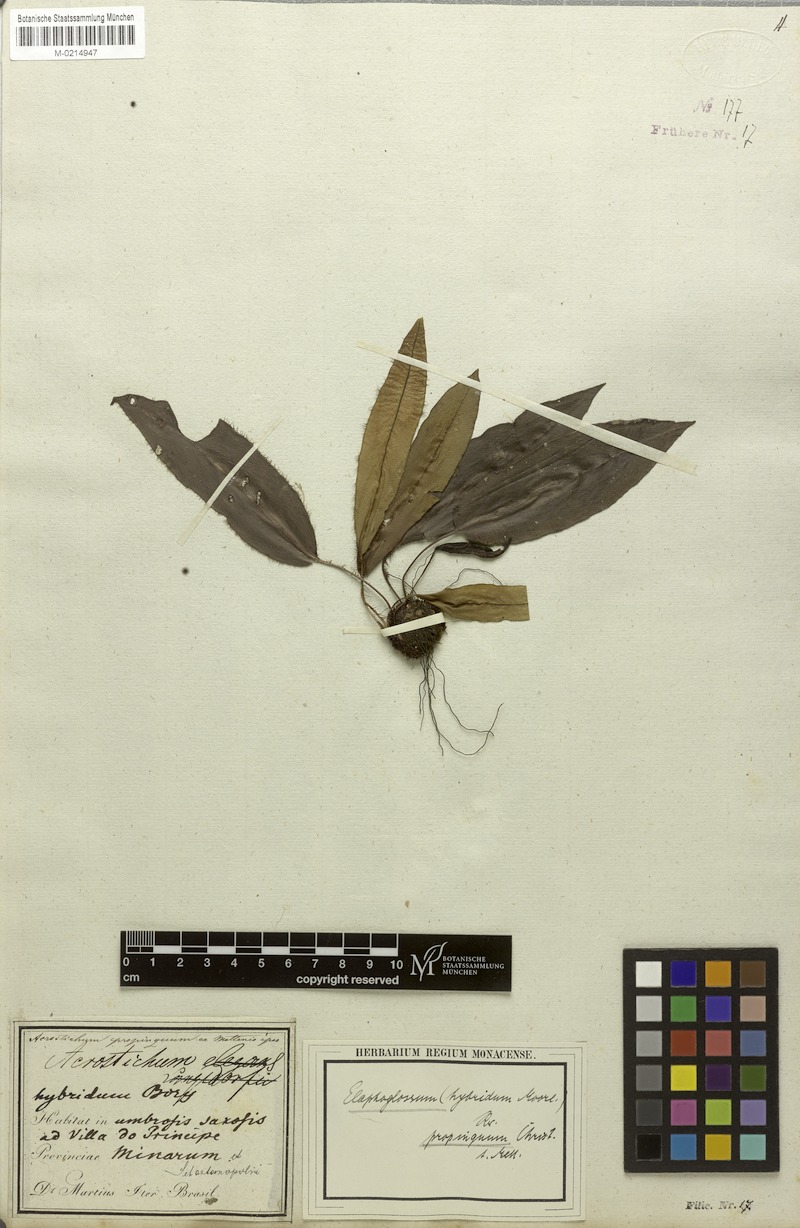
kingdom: Plantae
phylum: Tracheophyta
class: Polypodiopsida
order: Polypodiales
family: Dryopteridaceae
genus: Elaphoglossum
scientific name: Elaphoglossum hybridum
